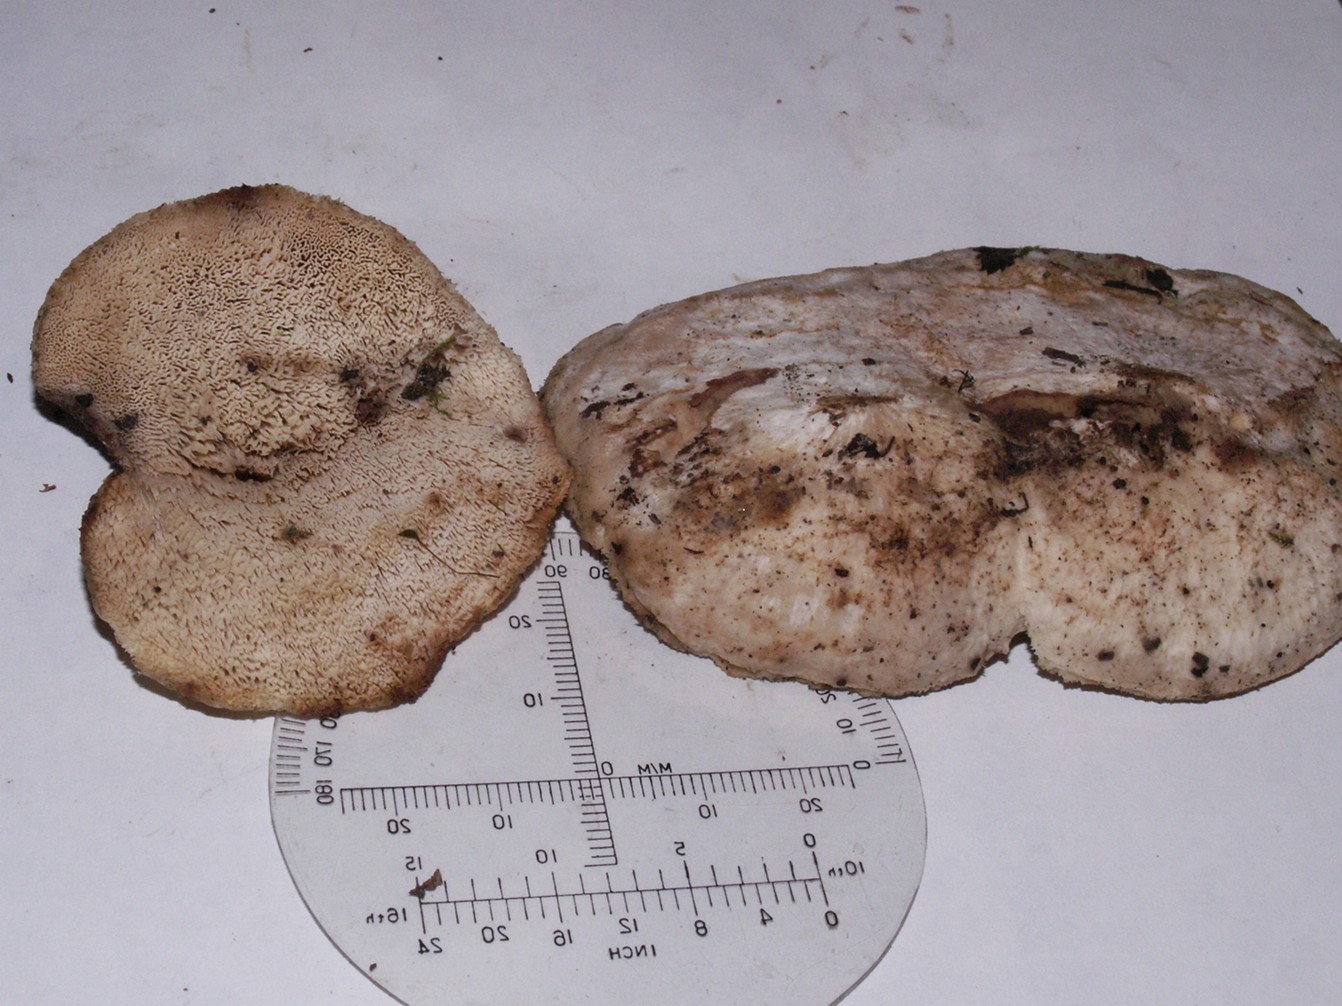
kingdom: Fungi
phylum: Basidiomycota
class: Agaricomycetes
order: Polyporales
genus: Fuscopostia
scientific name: Fuscopostia fragilis
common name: brunende kødporesvamp
